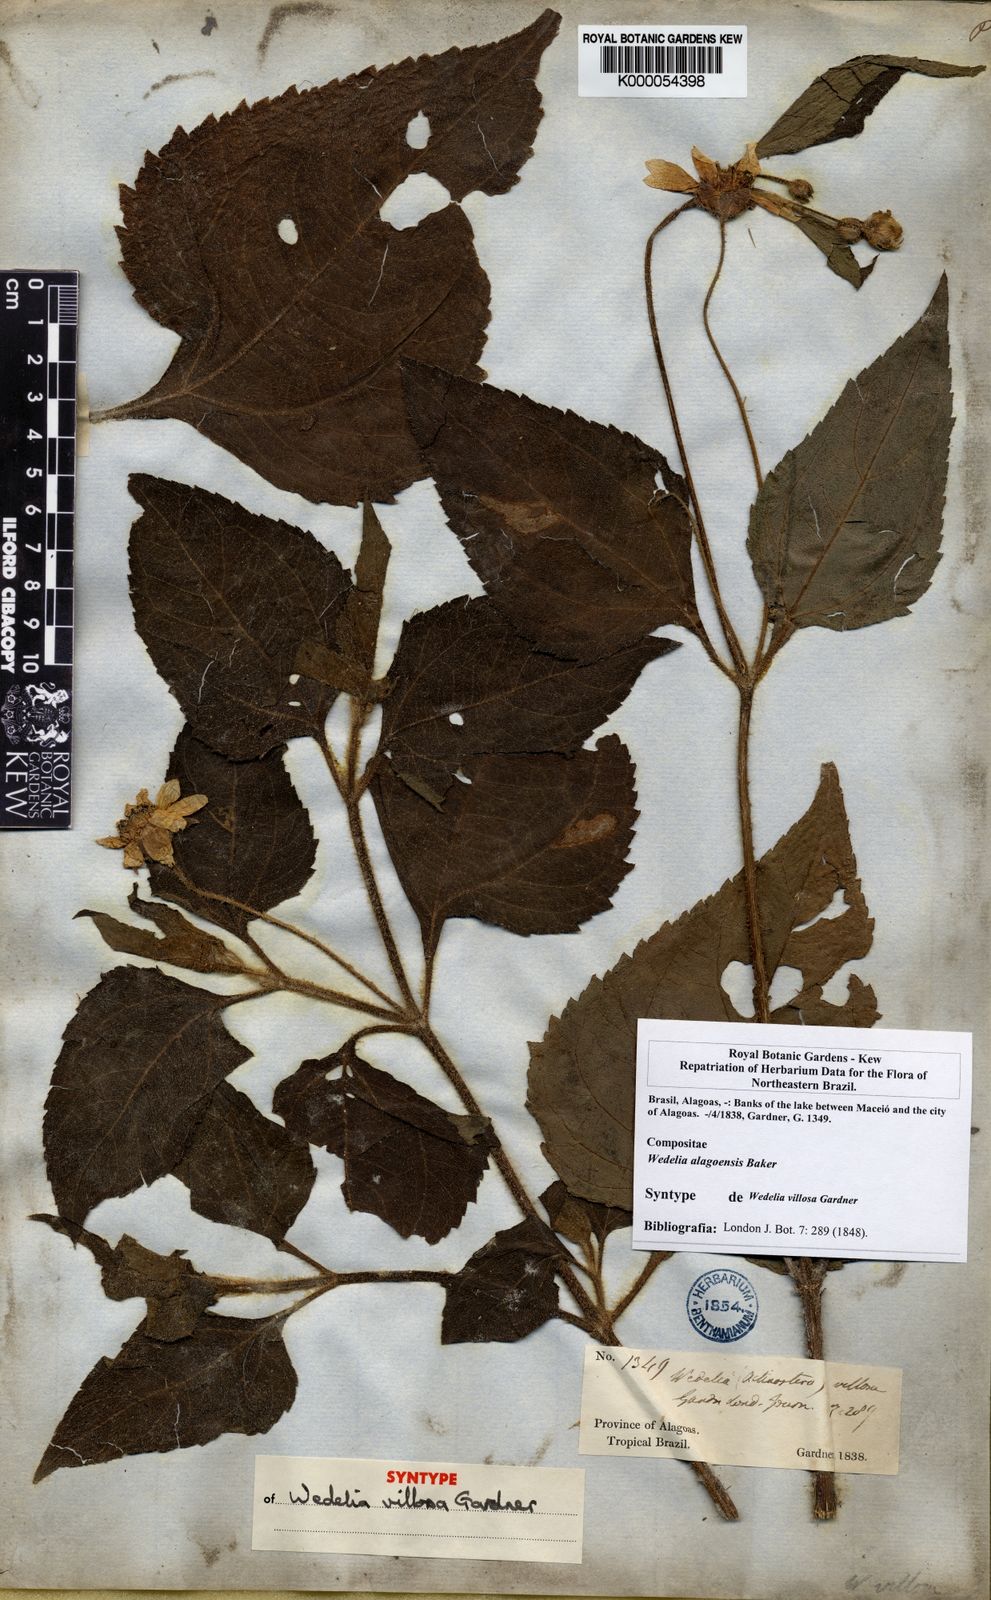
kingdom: Plantae
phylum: Tracheophyta
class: Magnoliopsida
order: Asterales
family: Asteraceae
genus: Wedelia
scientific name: Wedelia alagoensis
